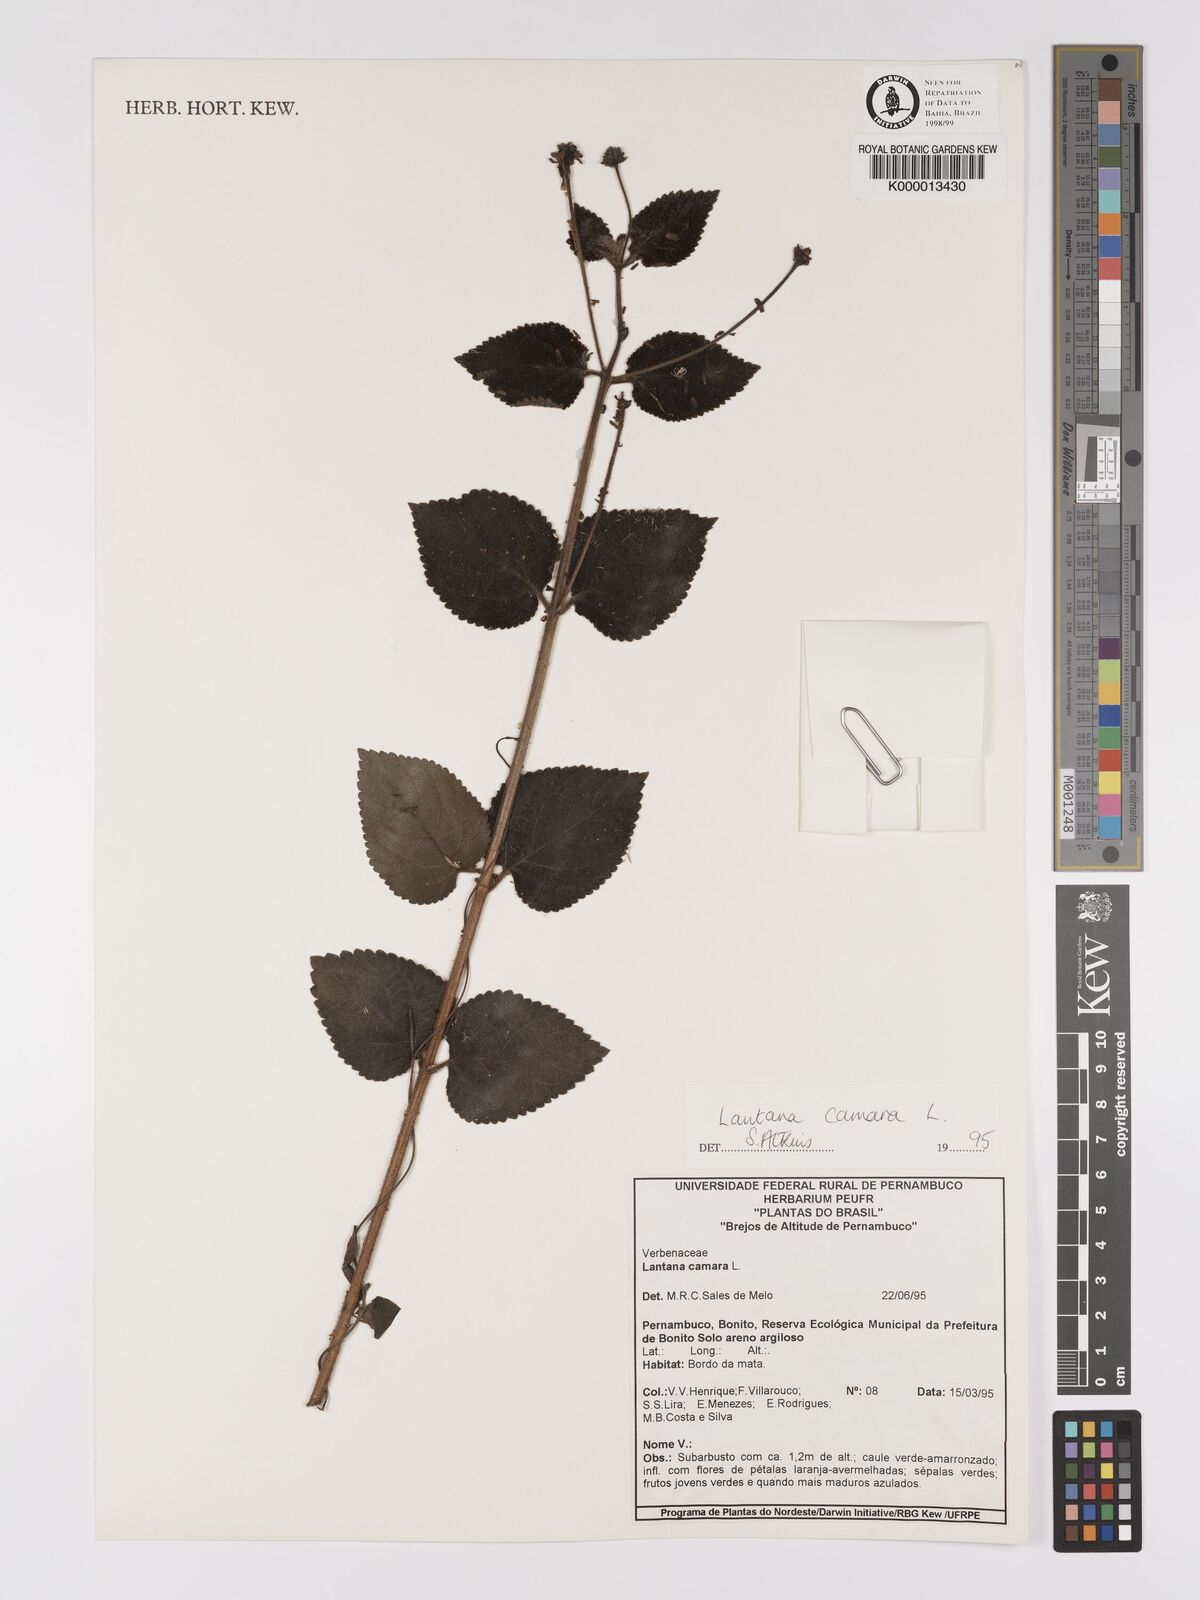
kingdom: Plantae
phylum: Tracheophyta
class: Magnoliopsida
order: Lamiales
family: Verbenaceae
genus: Lantana
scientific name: Lantana camara
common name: Lantana
